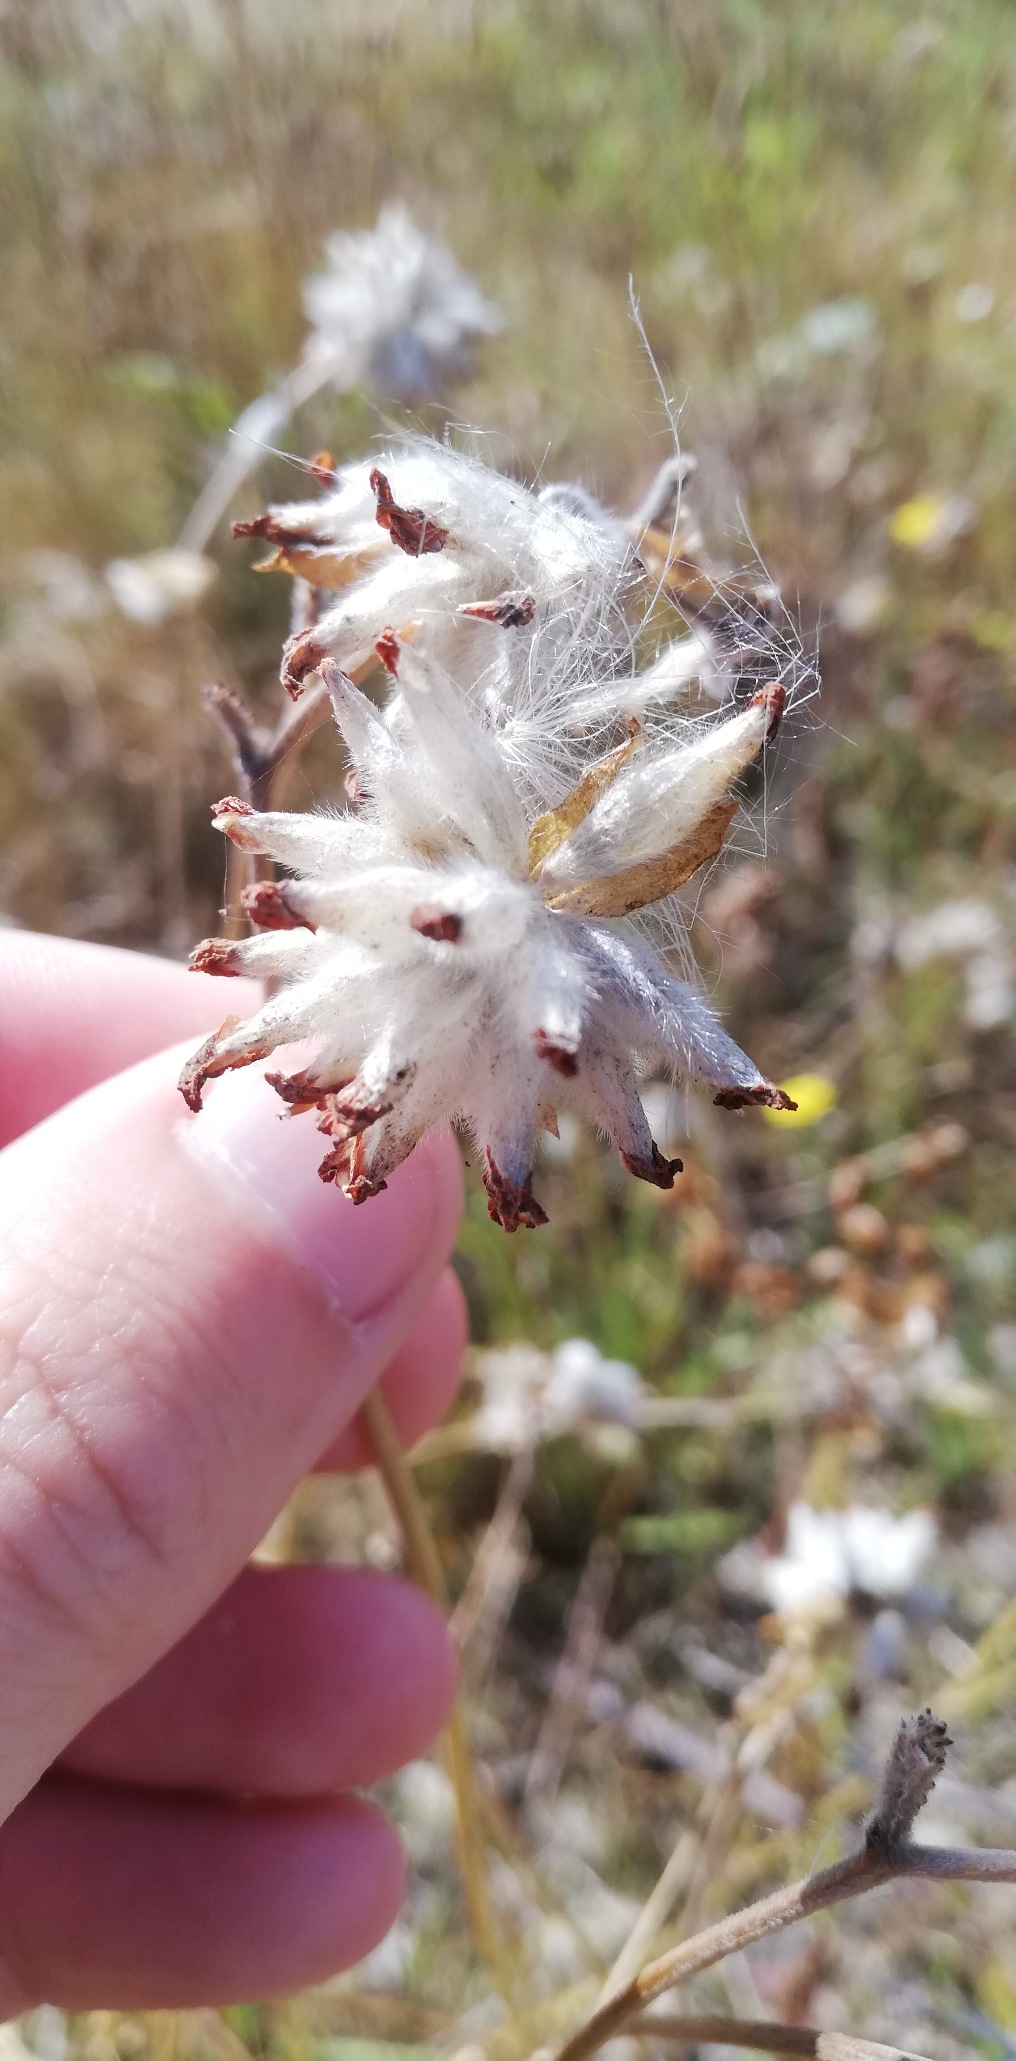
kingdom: Plantae
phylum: Tracheophyta
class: Magnoliopsida
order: Fabales
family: Fabaceae
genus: Anthyllis
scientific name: Anthyllis vulneraria
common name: Rundbælg
